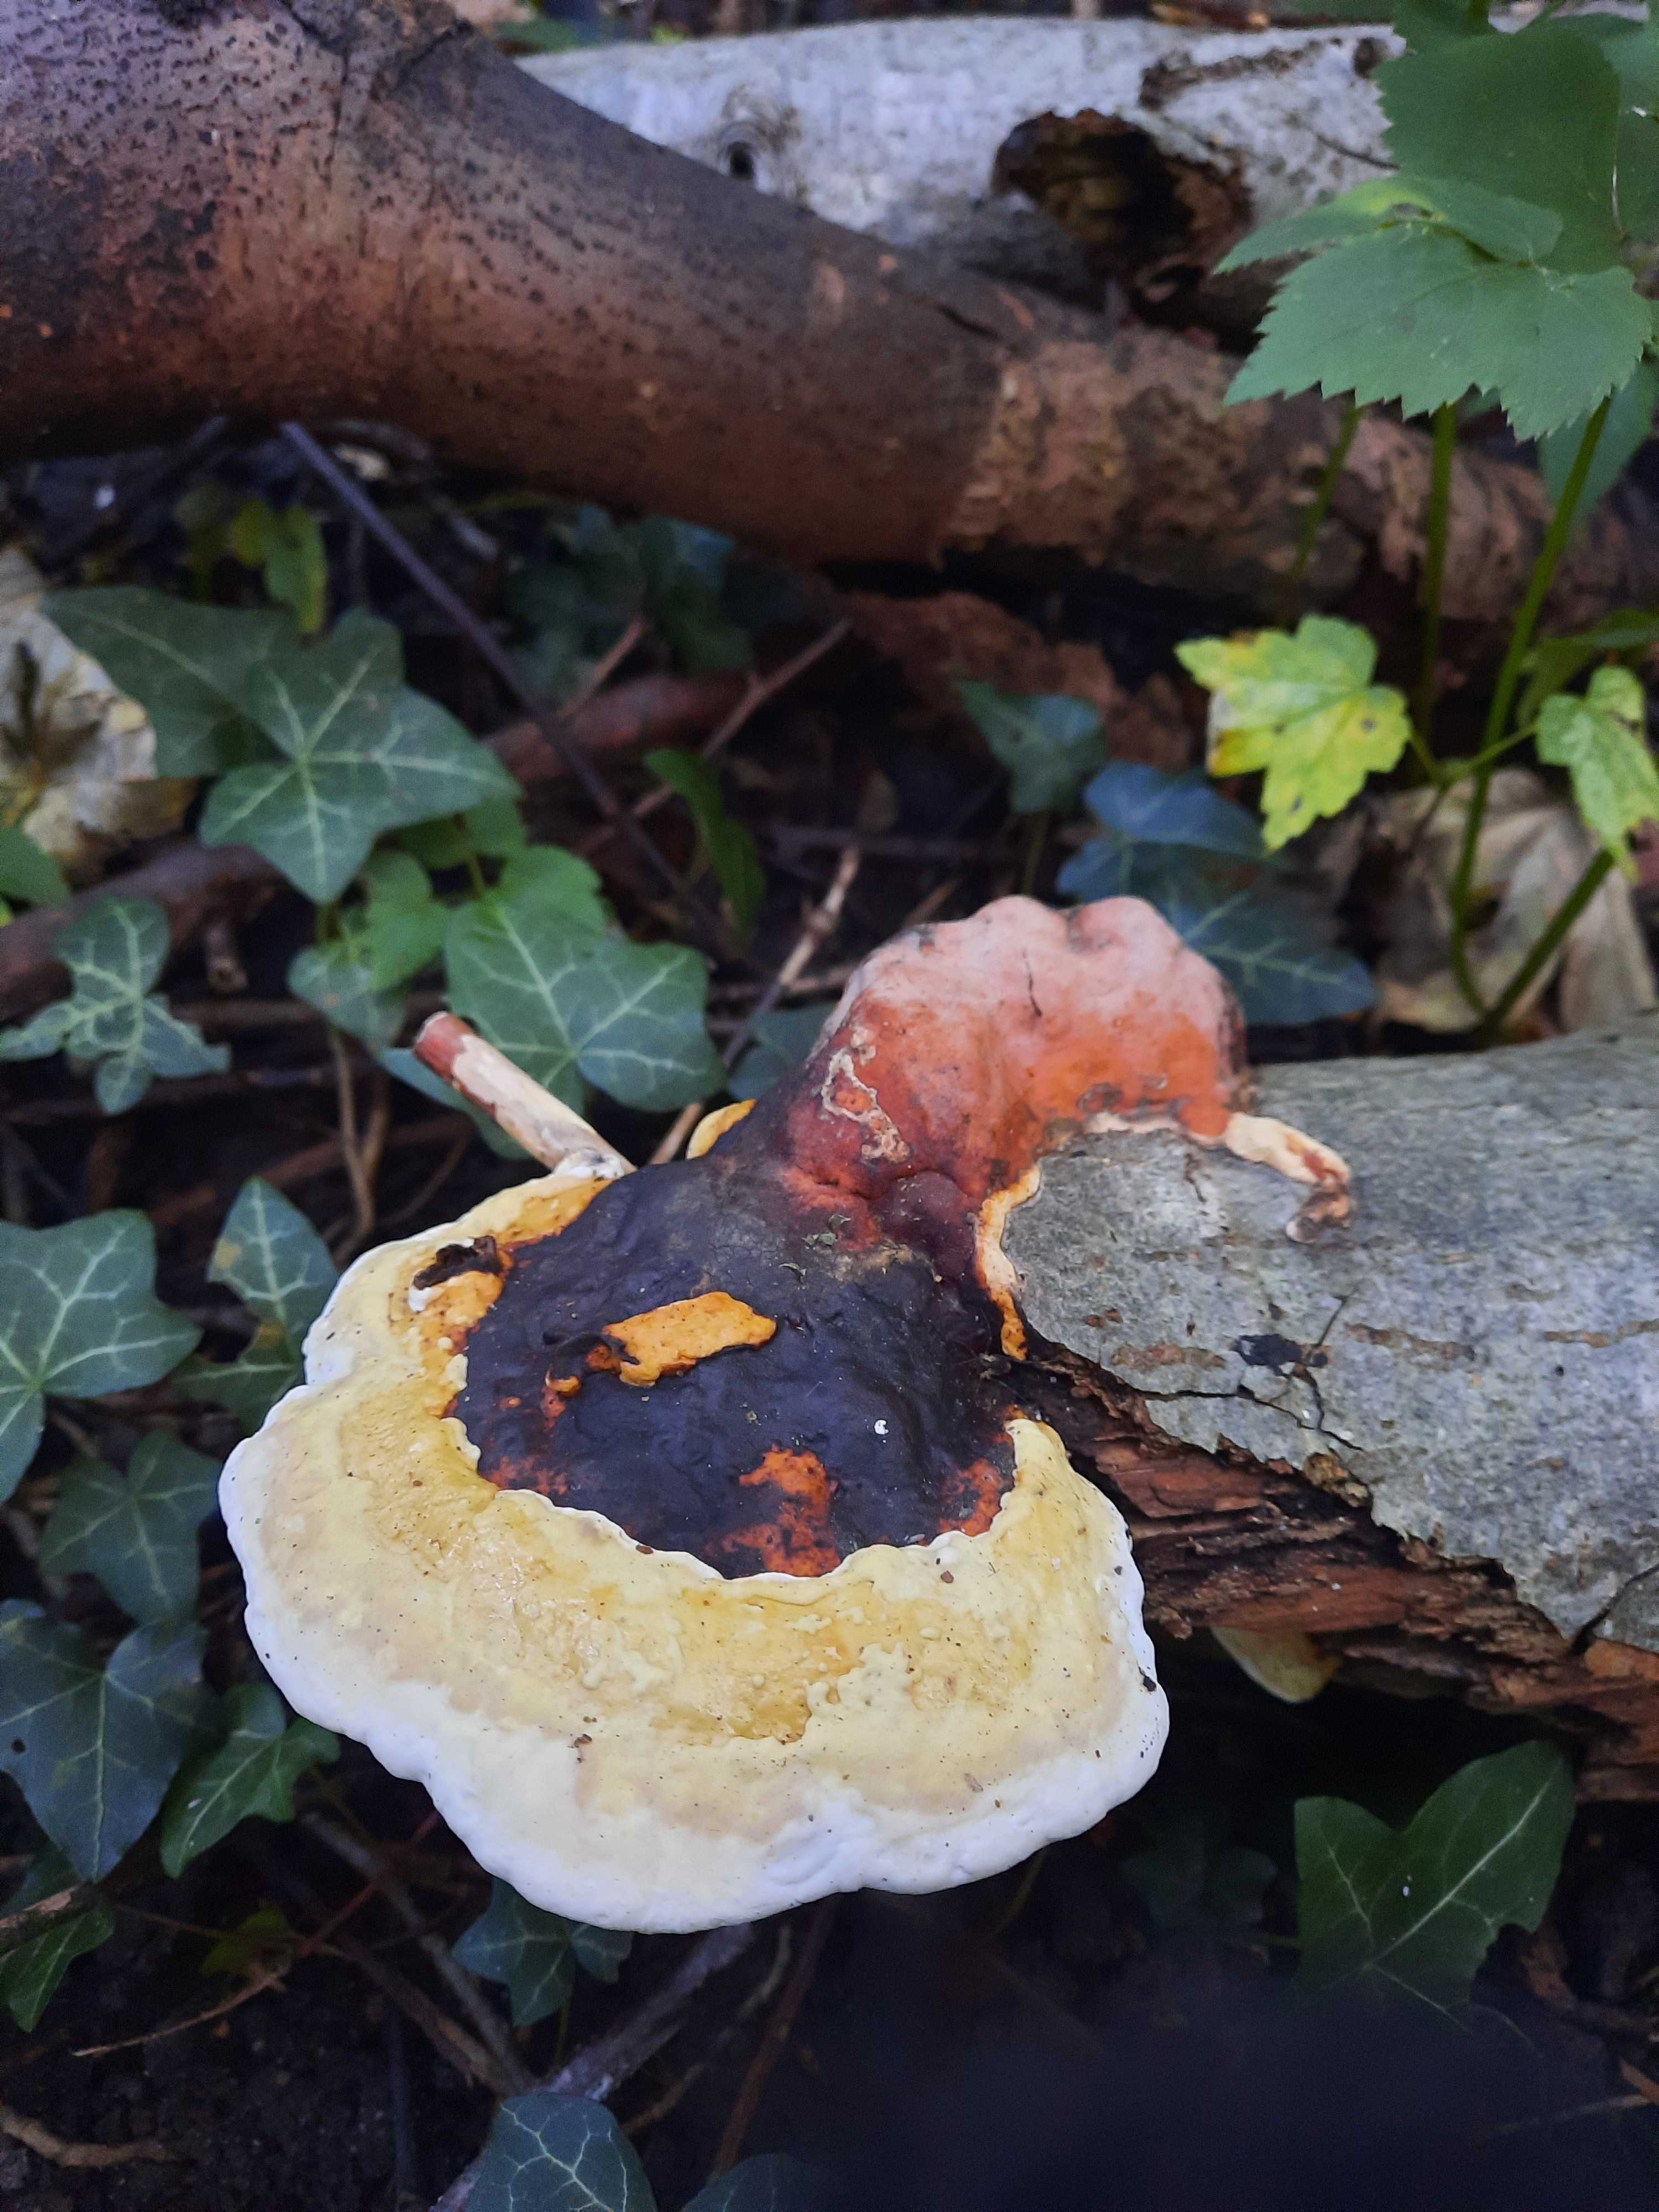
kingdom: Fungi
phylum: Basidiomycota
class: Agaricomycetes
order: Polyporales
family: Fomitopsidaceae
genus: Fomitopsis
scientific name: Fomitopsis pinicola
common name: randbæltet hovporesvamp
